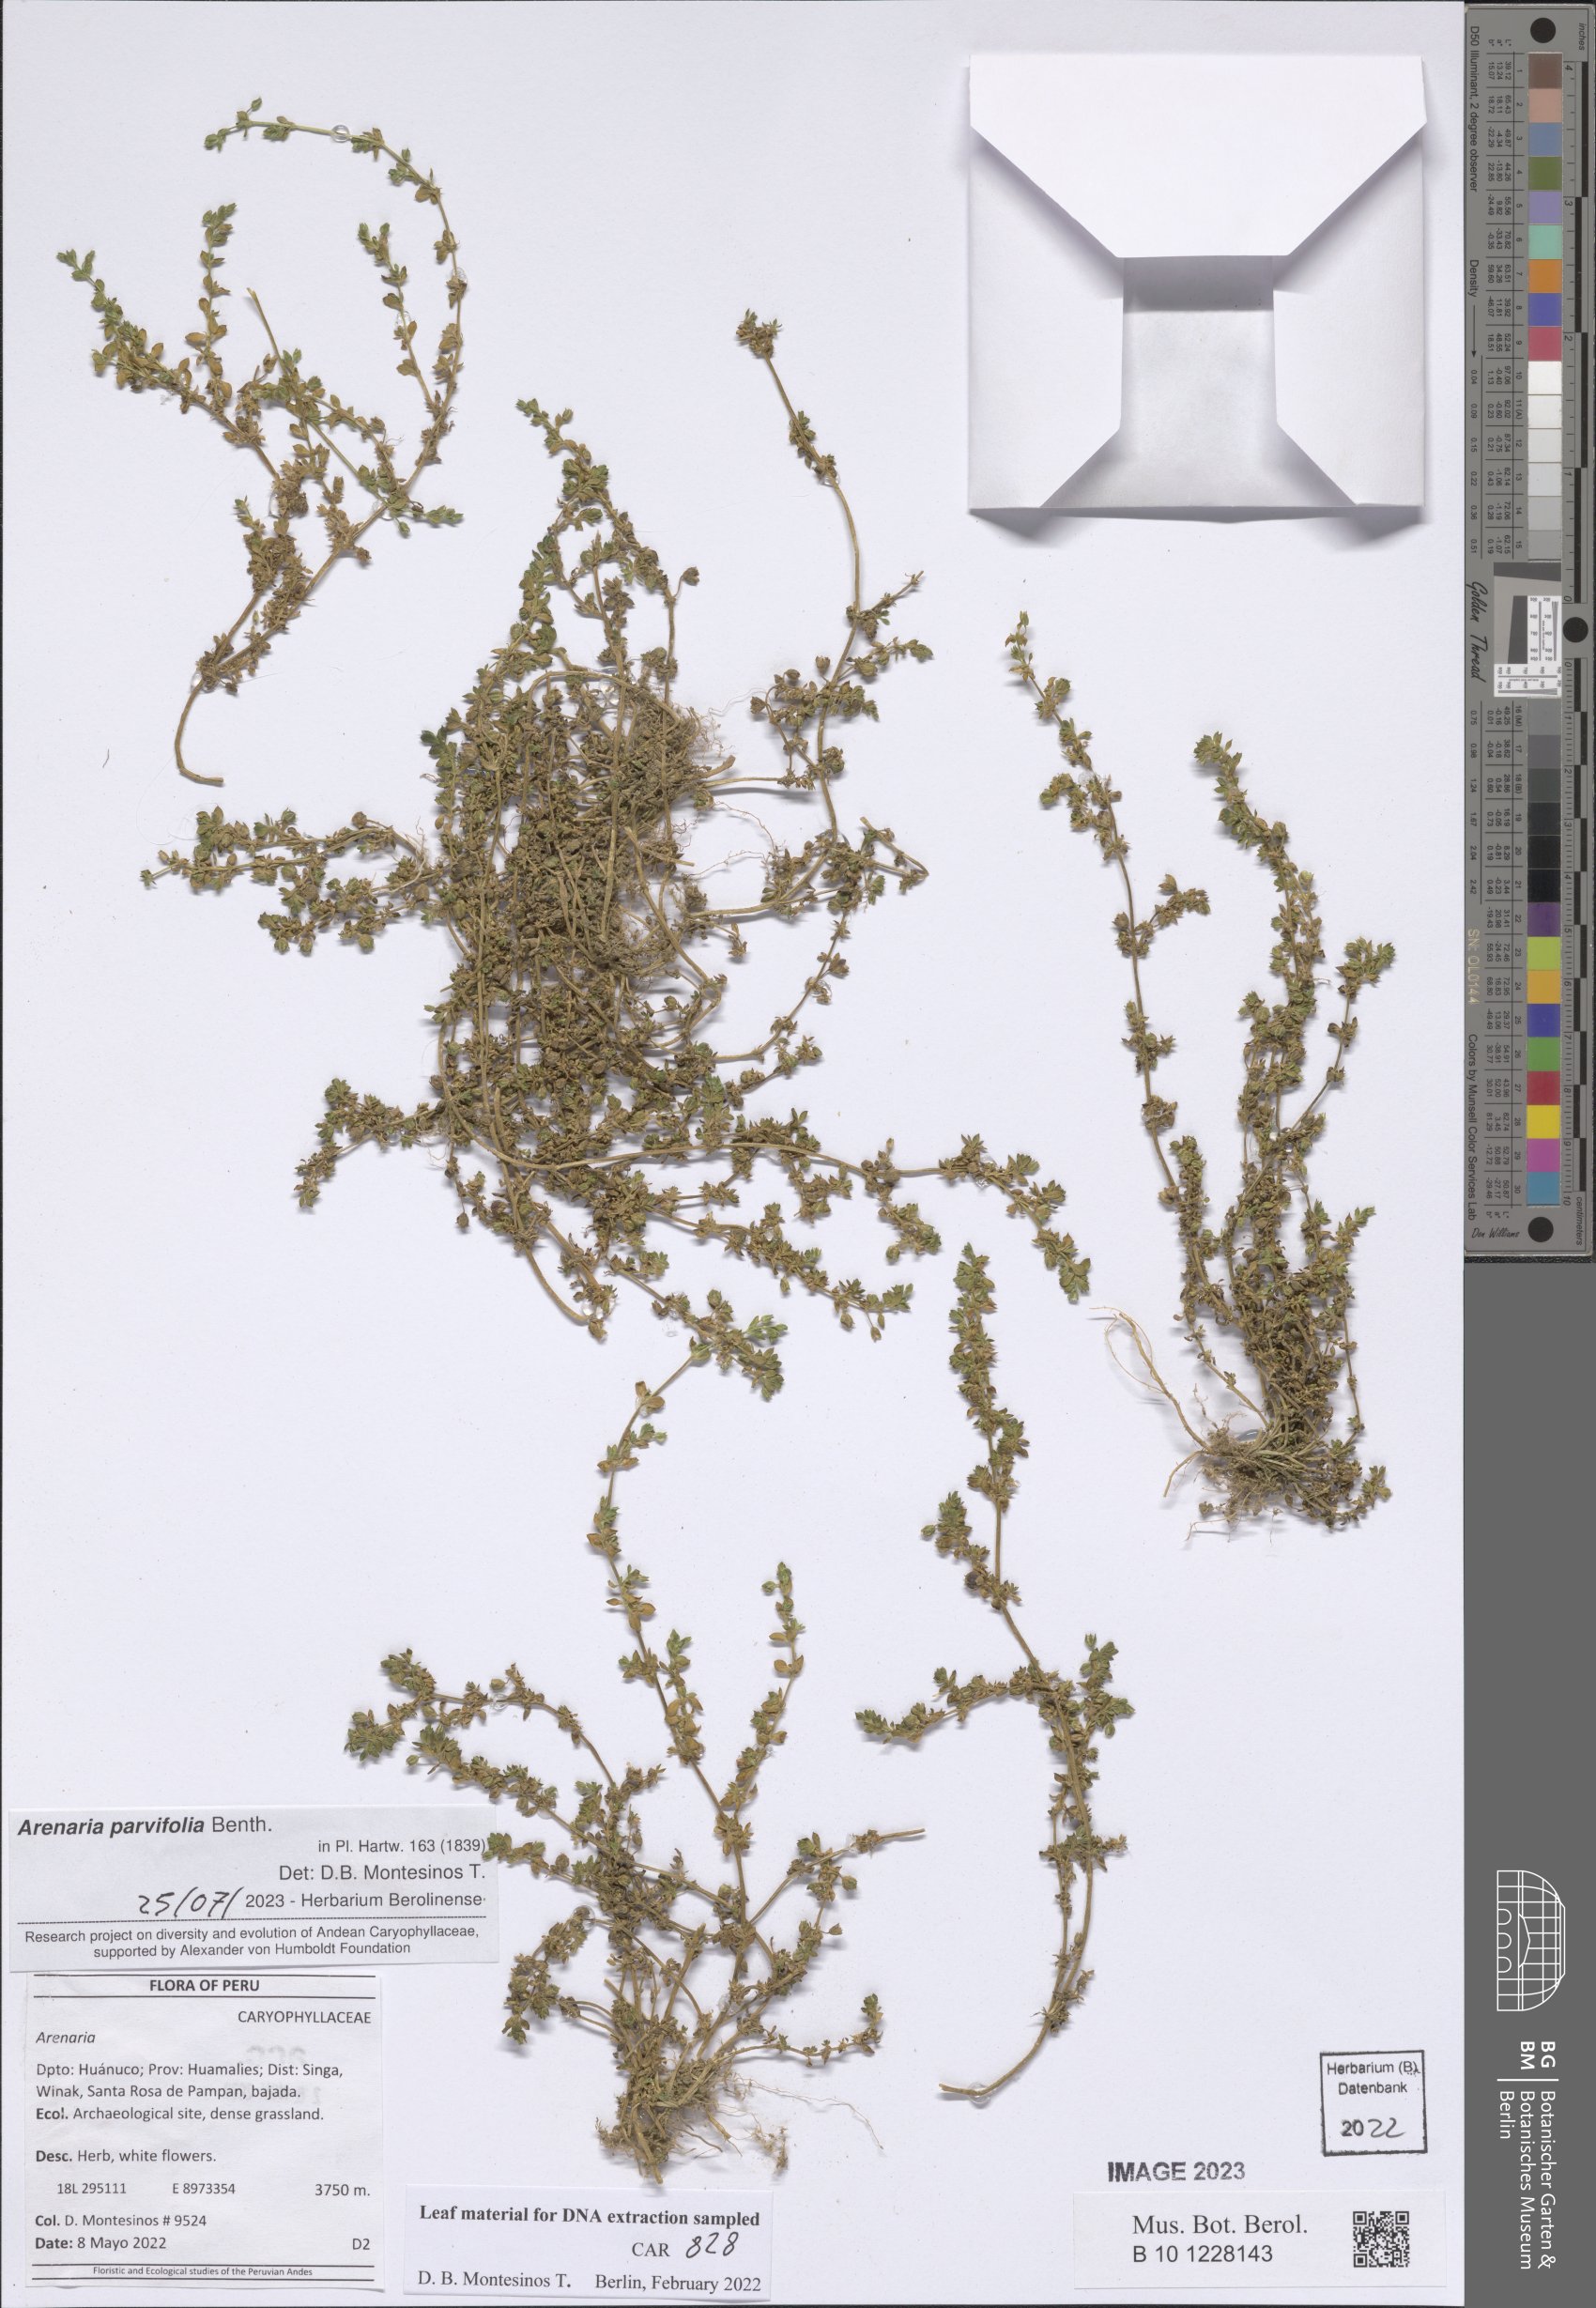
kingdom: Plantae
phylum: Tracheophyta
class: Magnoliopsida
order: Caryophyllales
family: Caryophyllaceae
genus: Arenaria
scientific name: Arenaria
